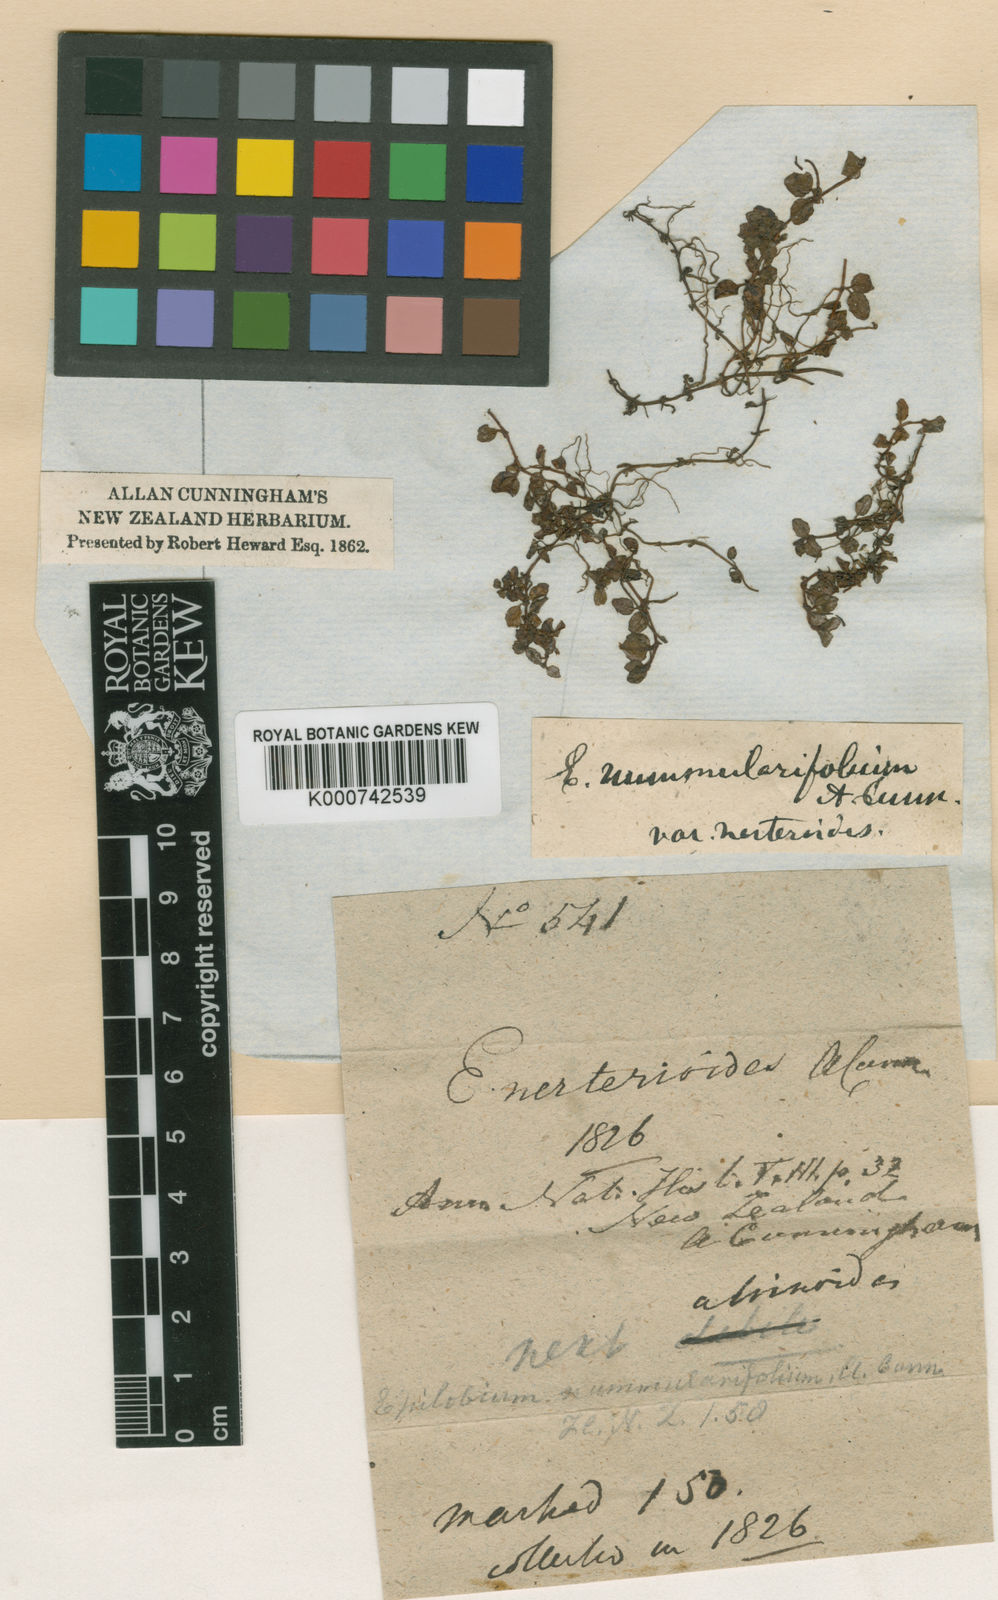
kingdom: Plantae
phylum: Tracheophyta
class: Magnoliopsida
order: Myrtales
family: Onagraceae
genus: Epilobium
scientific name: Epilobium nerterioides
